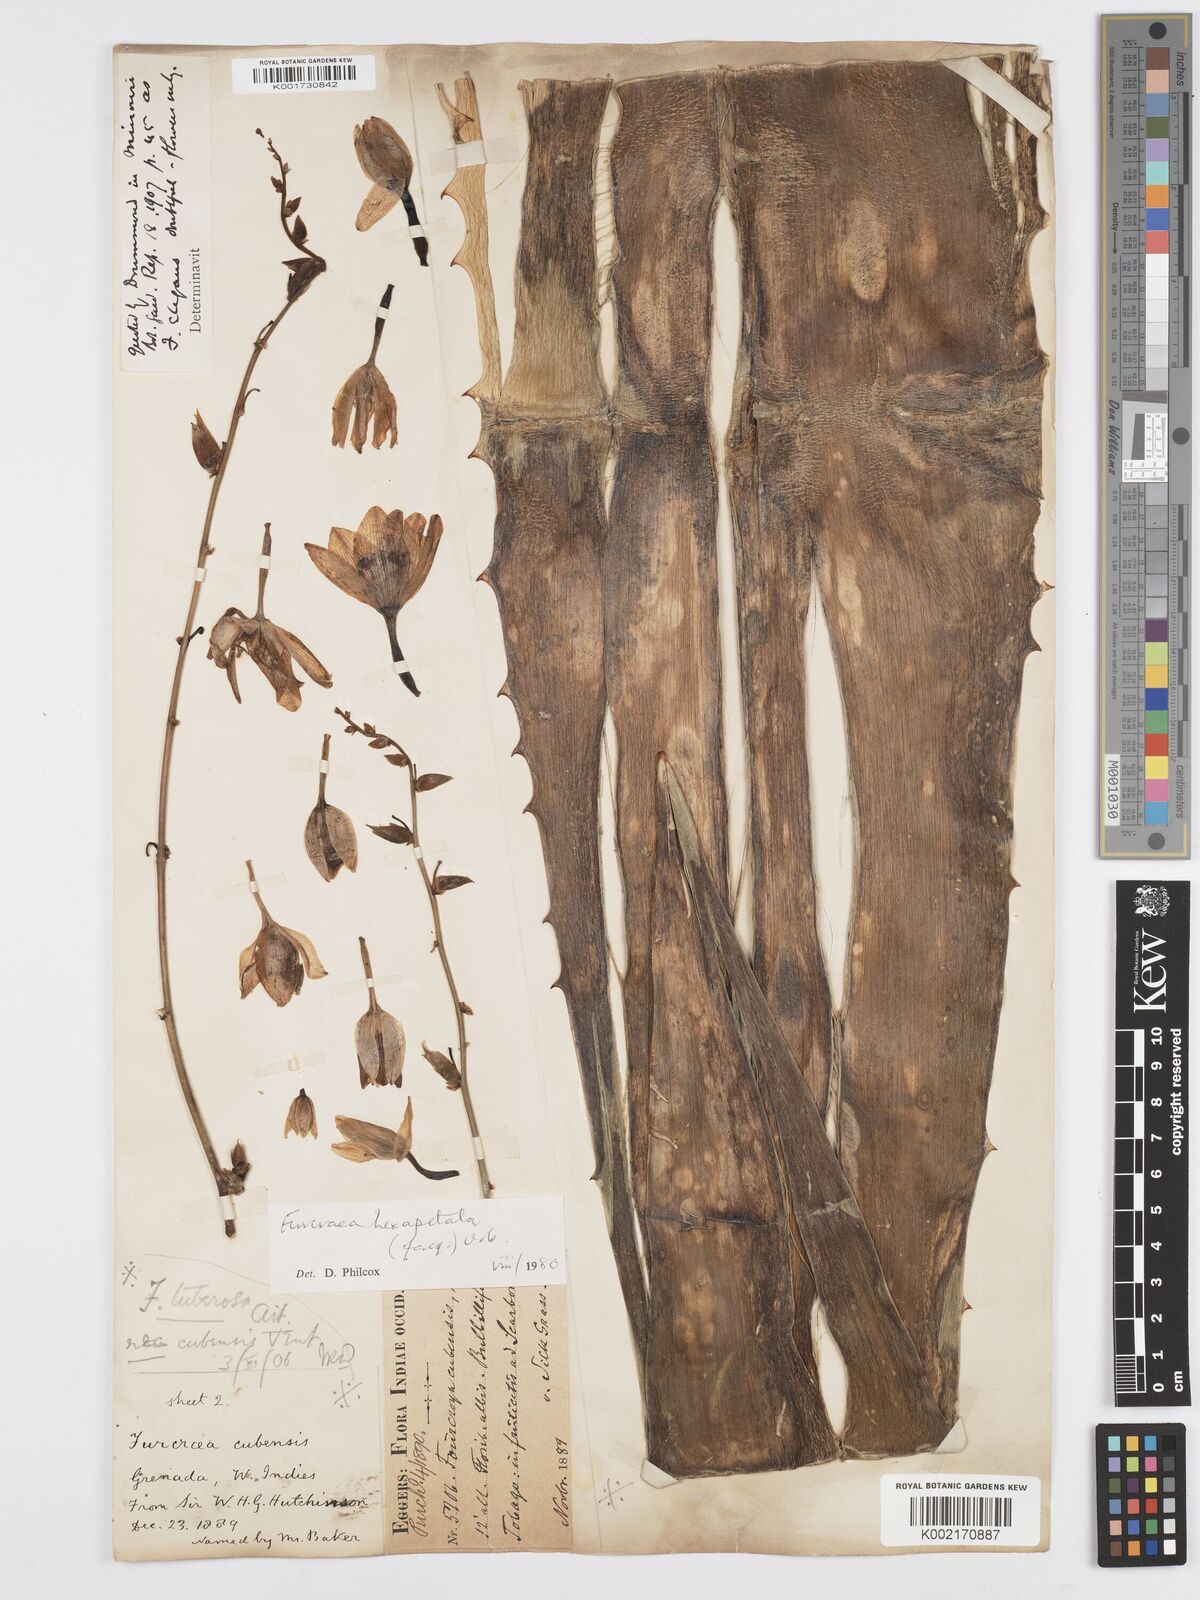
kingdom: Plantae
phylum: Tracheophyta
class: Liliopsida
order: Asparagales
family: Asparagaceae
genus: Furcraea
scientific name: Furcraea hexapetala
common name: Cuban-hemp
